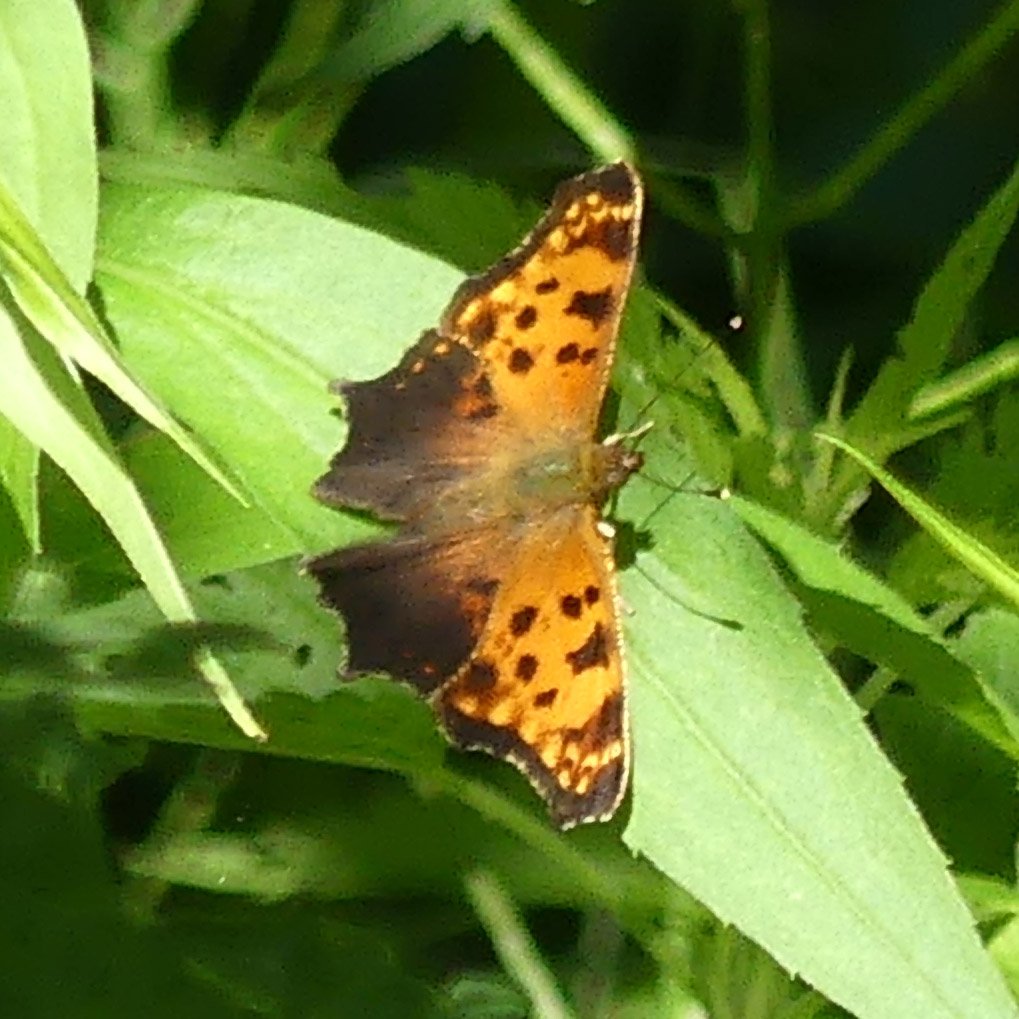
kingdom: Animalia
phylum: Arthropoda
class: Insecta
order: Lepidoptera
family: Nymphalidae
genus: Polygonia
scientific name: Polygonia comma
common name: Eastern Comma
